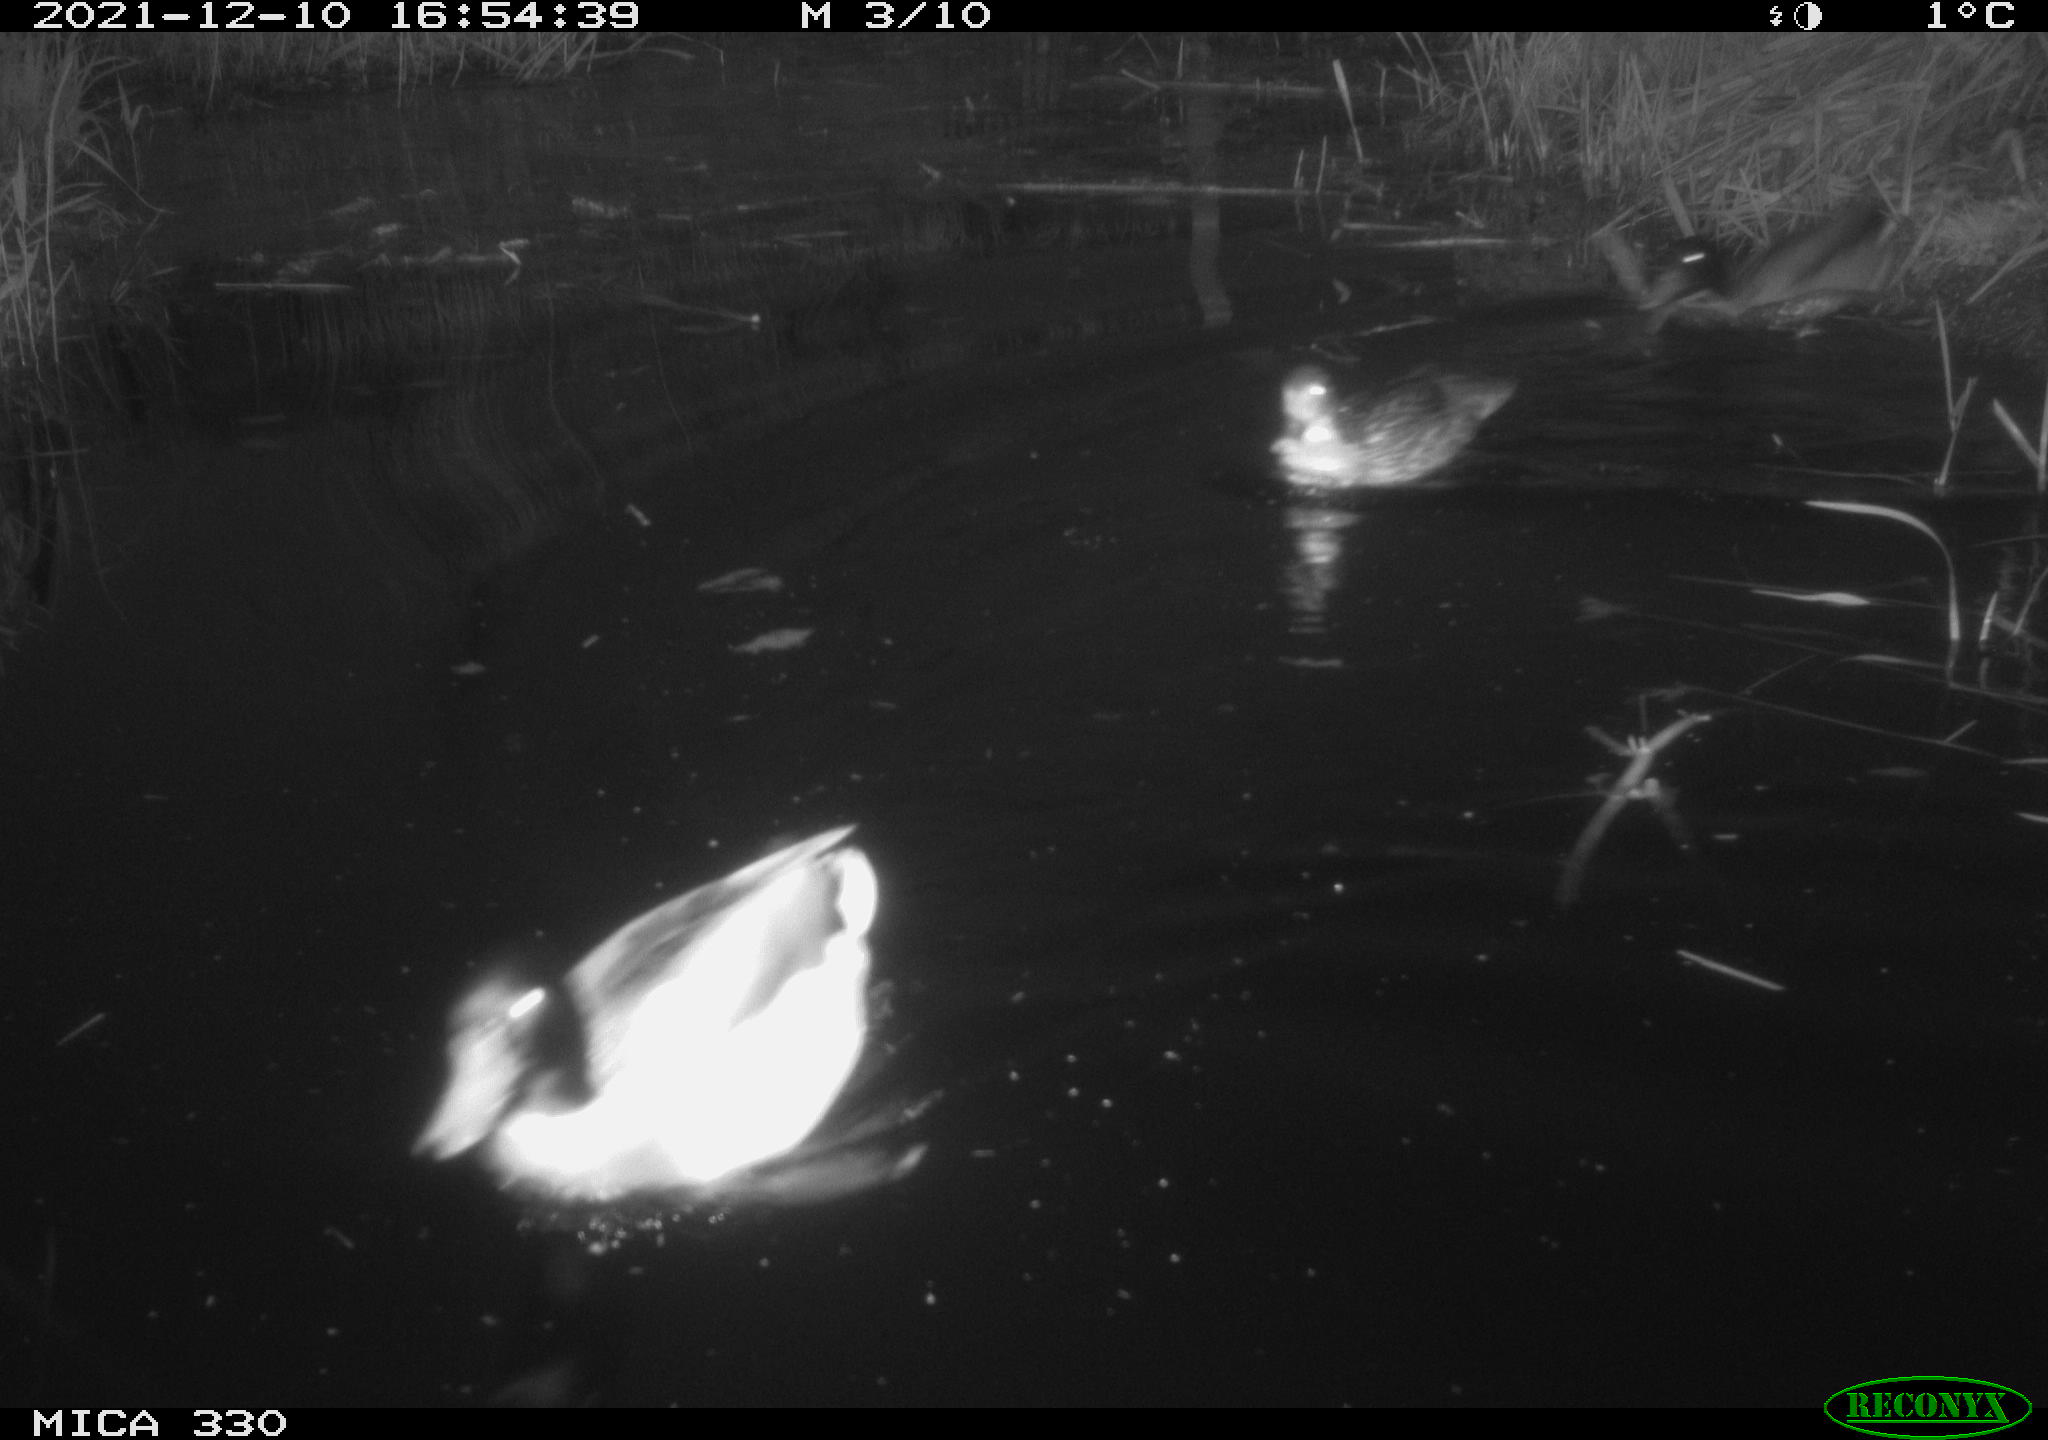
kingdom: Animalia
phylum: Chordata
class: Aves
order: Anseriformes
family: Anatidae
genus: Anas
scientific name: Anas platyrhynchos
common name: Mallard
